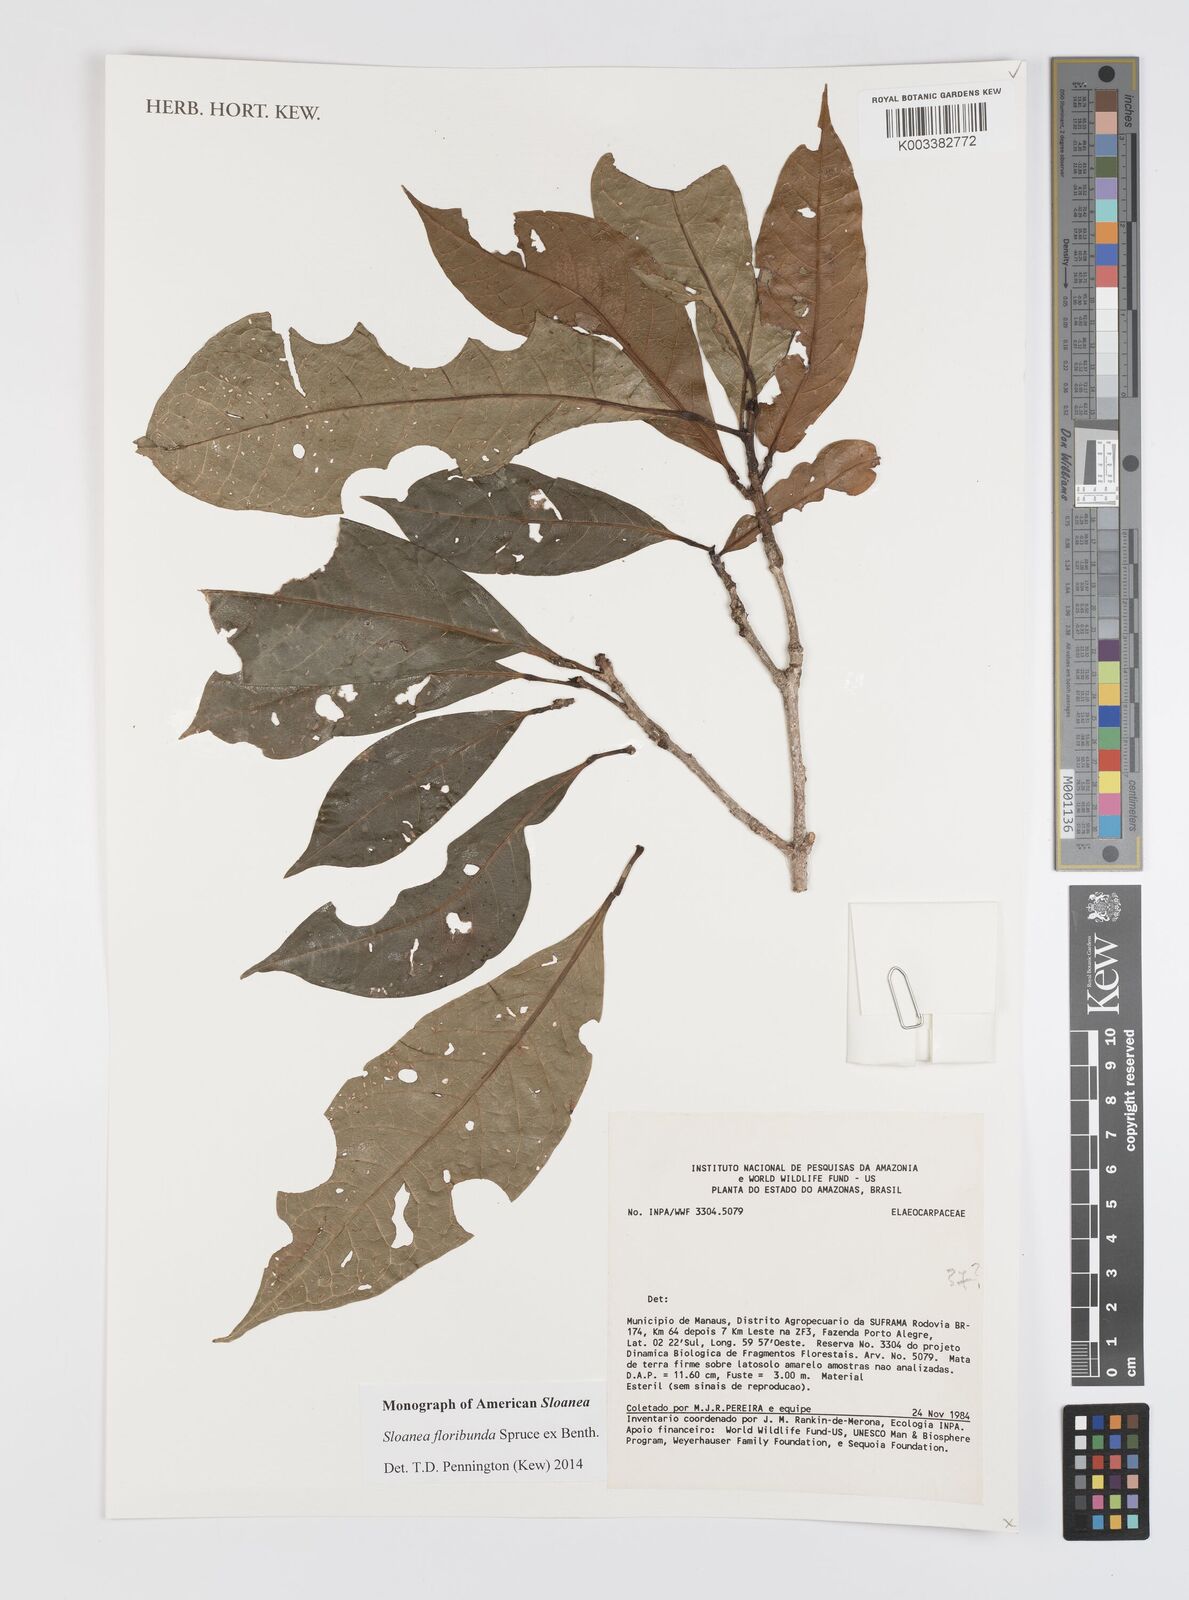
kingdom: Plantae
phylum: Tracheophyta
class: Magnoliopsida
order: Oxalidales
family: Elaeocarpaceae
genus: Sloanea
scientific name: Sloanea floribunda
